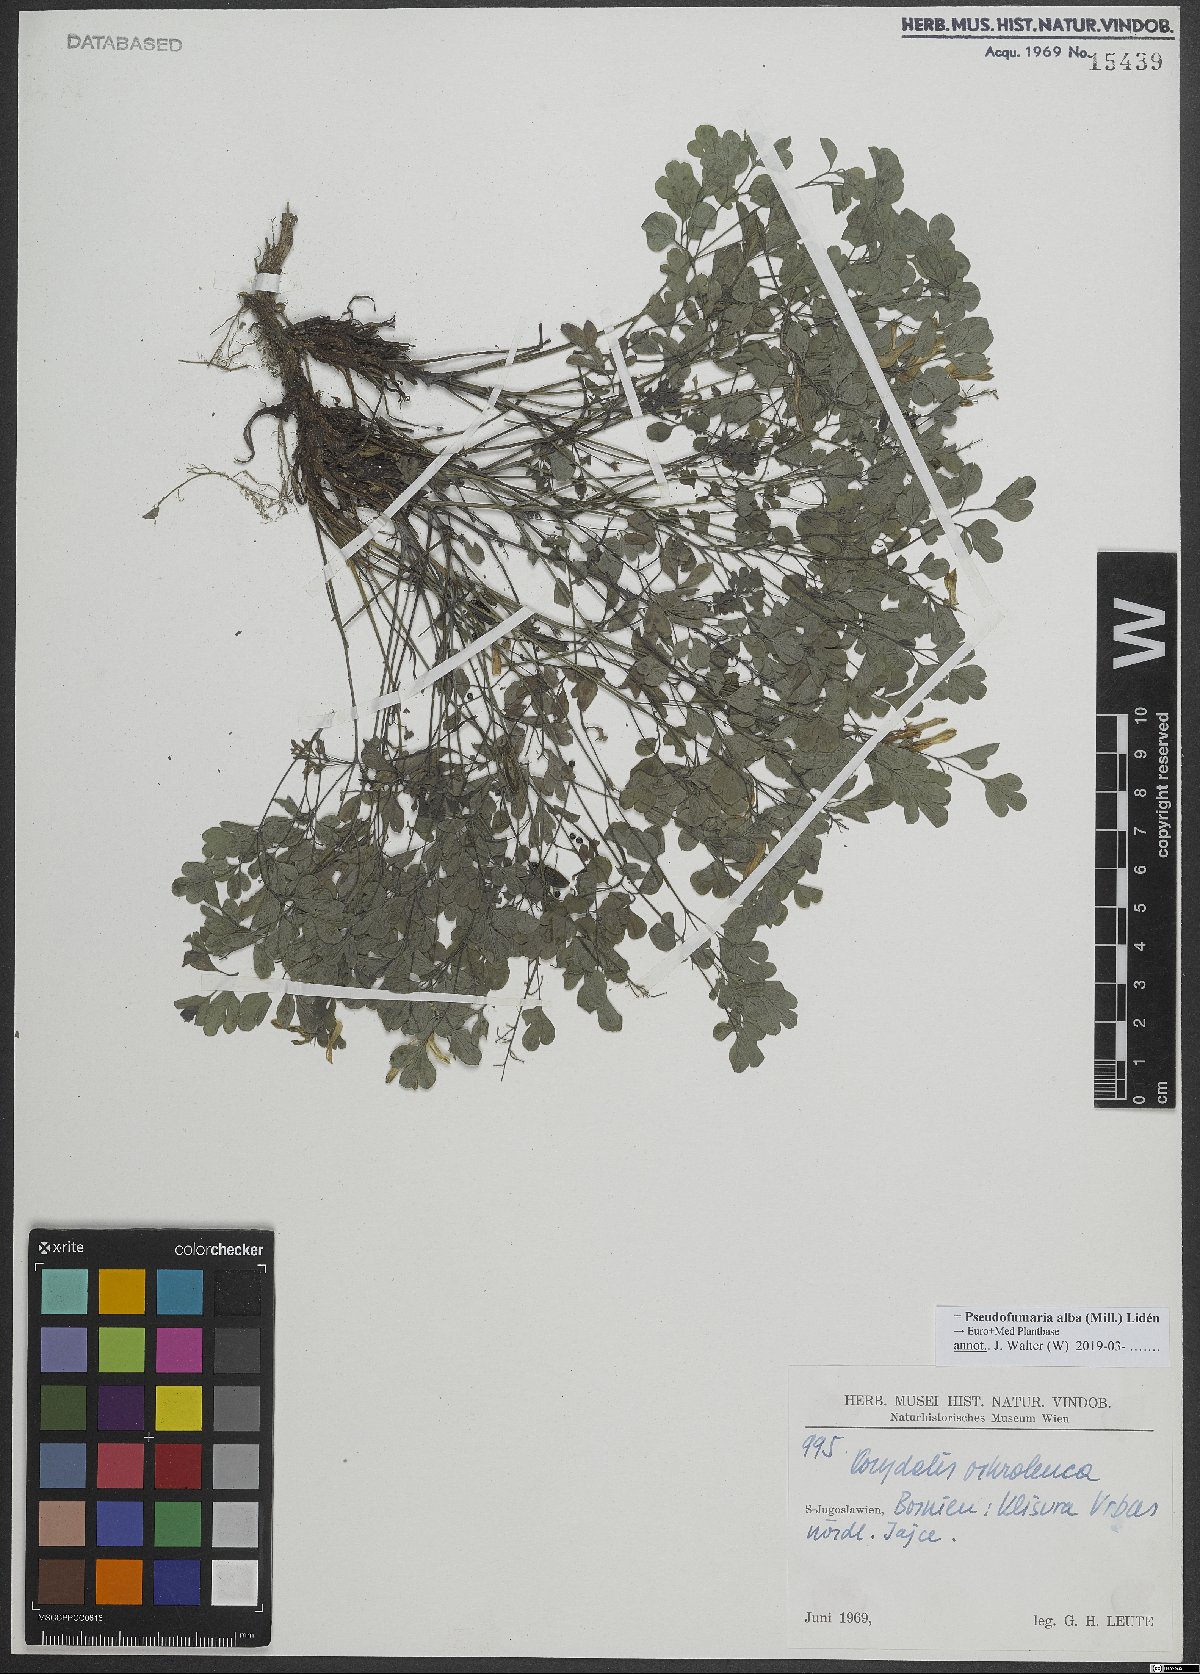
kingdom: Plantae
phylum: Tracheophyta
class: Magnoliopsida
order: Ranunculales
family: Papaveraceae
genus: Pseudofumaria
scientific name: Pseudofumaria alba
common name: Pale corydalis
